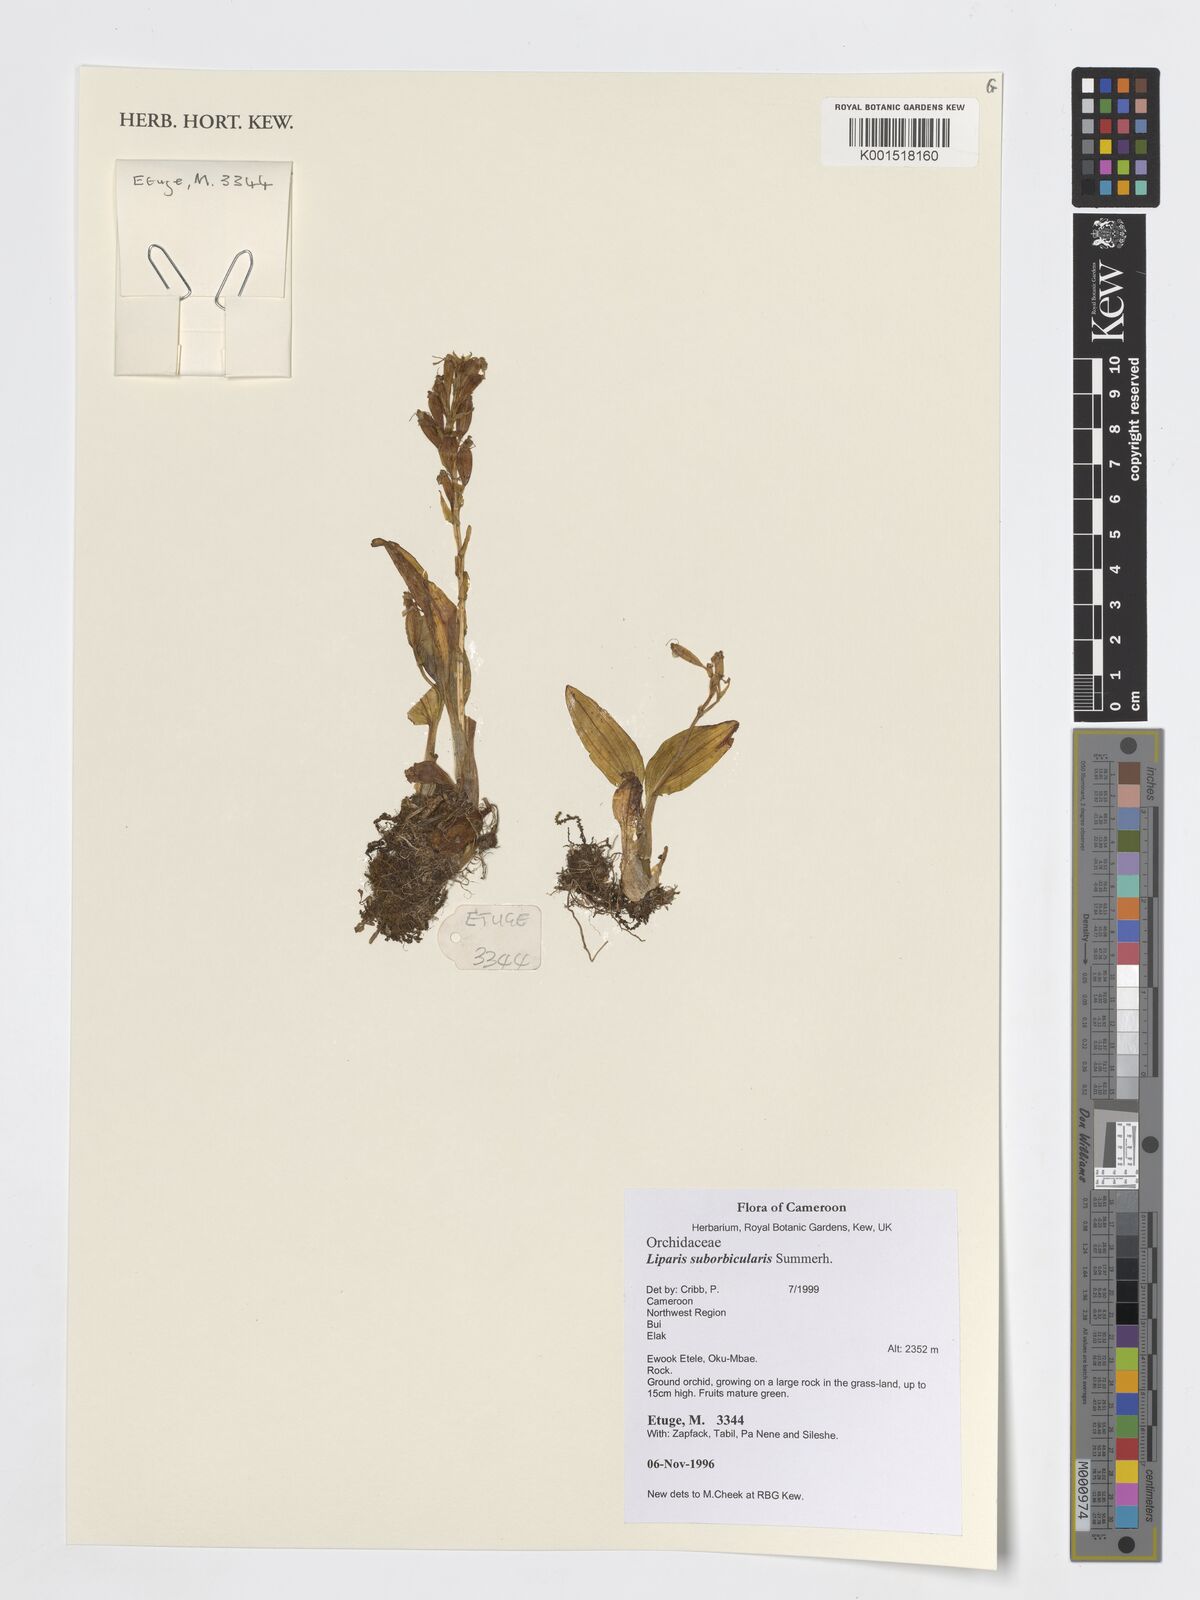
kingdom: Plantae
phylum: Tracheophyta
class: Liliopsida
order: Asparagales
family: Orchidaceae
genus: Liparis
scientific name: Liparis suborbicularis
